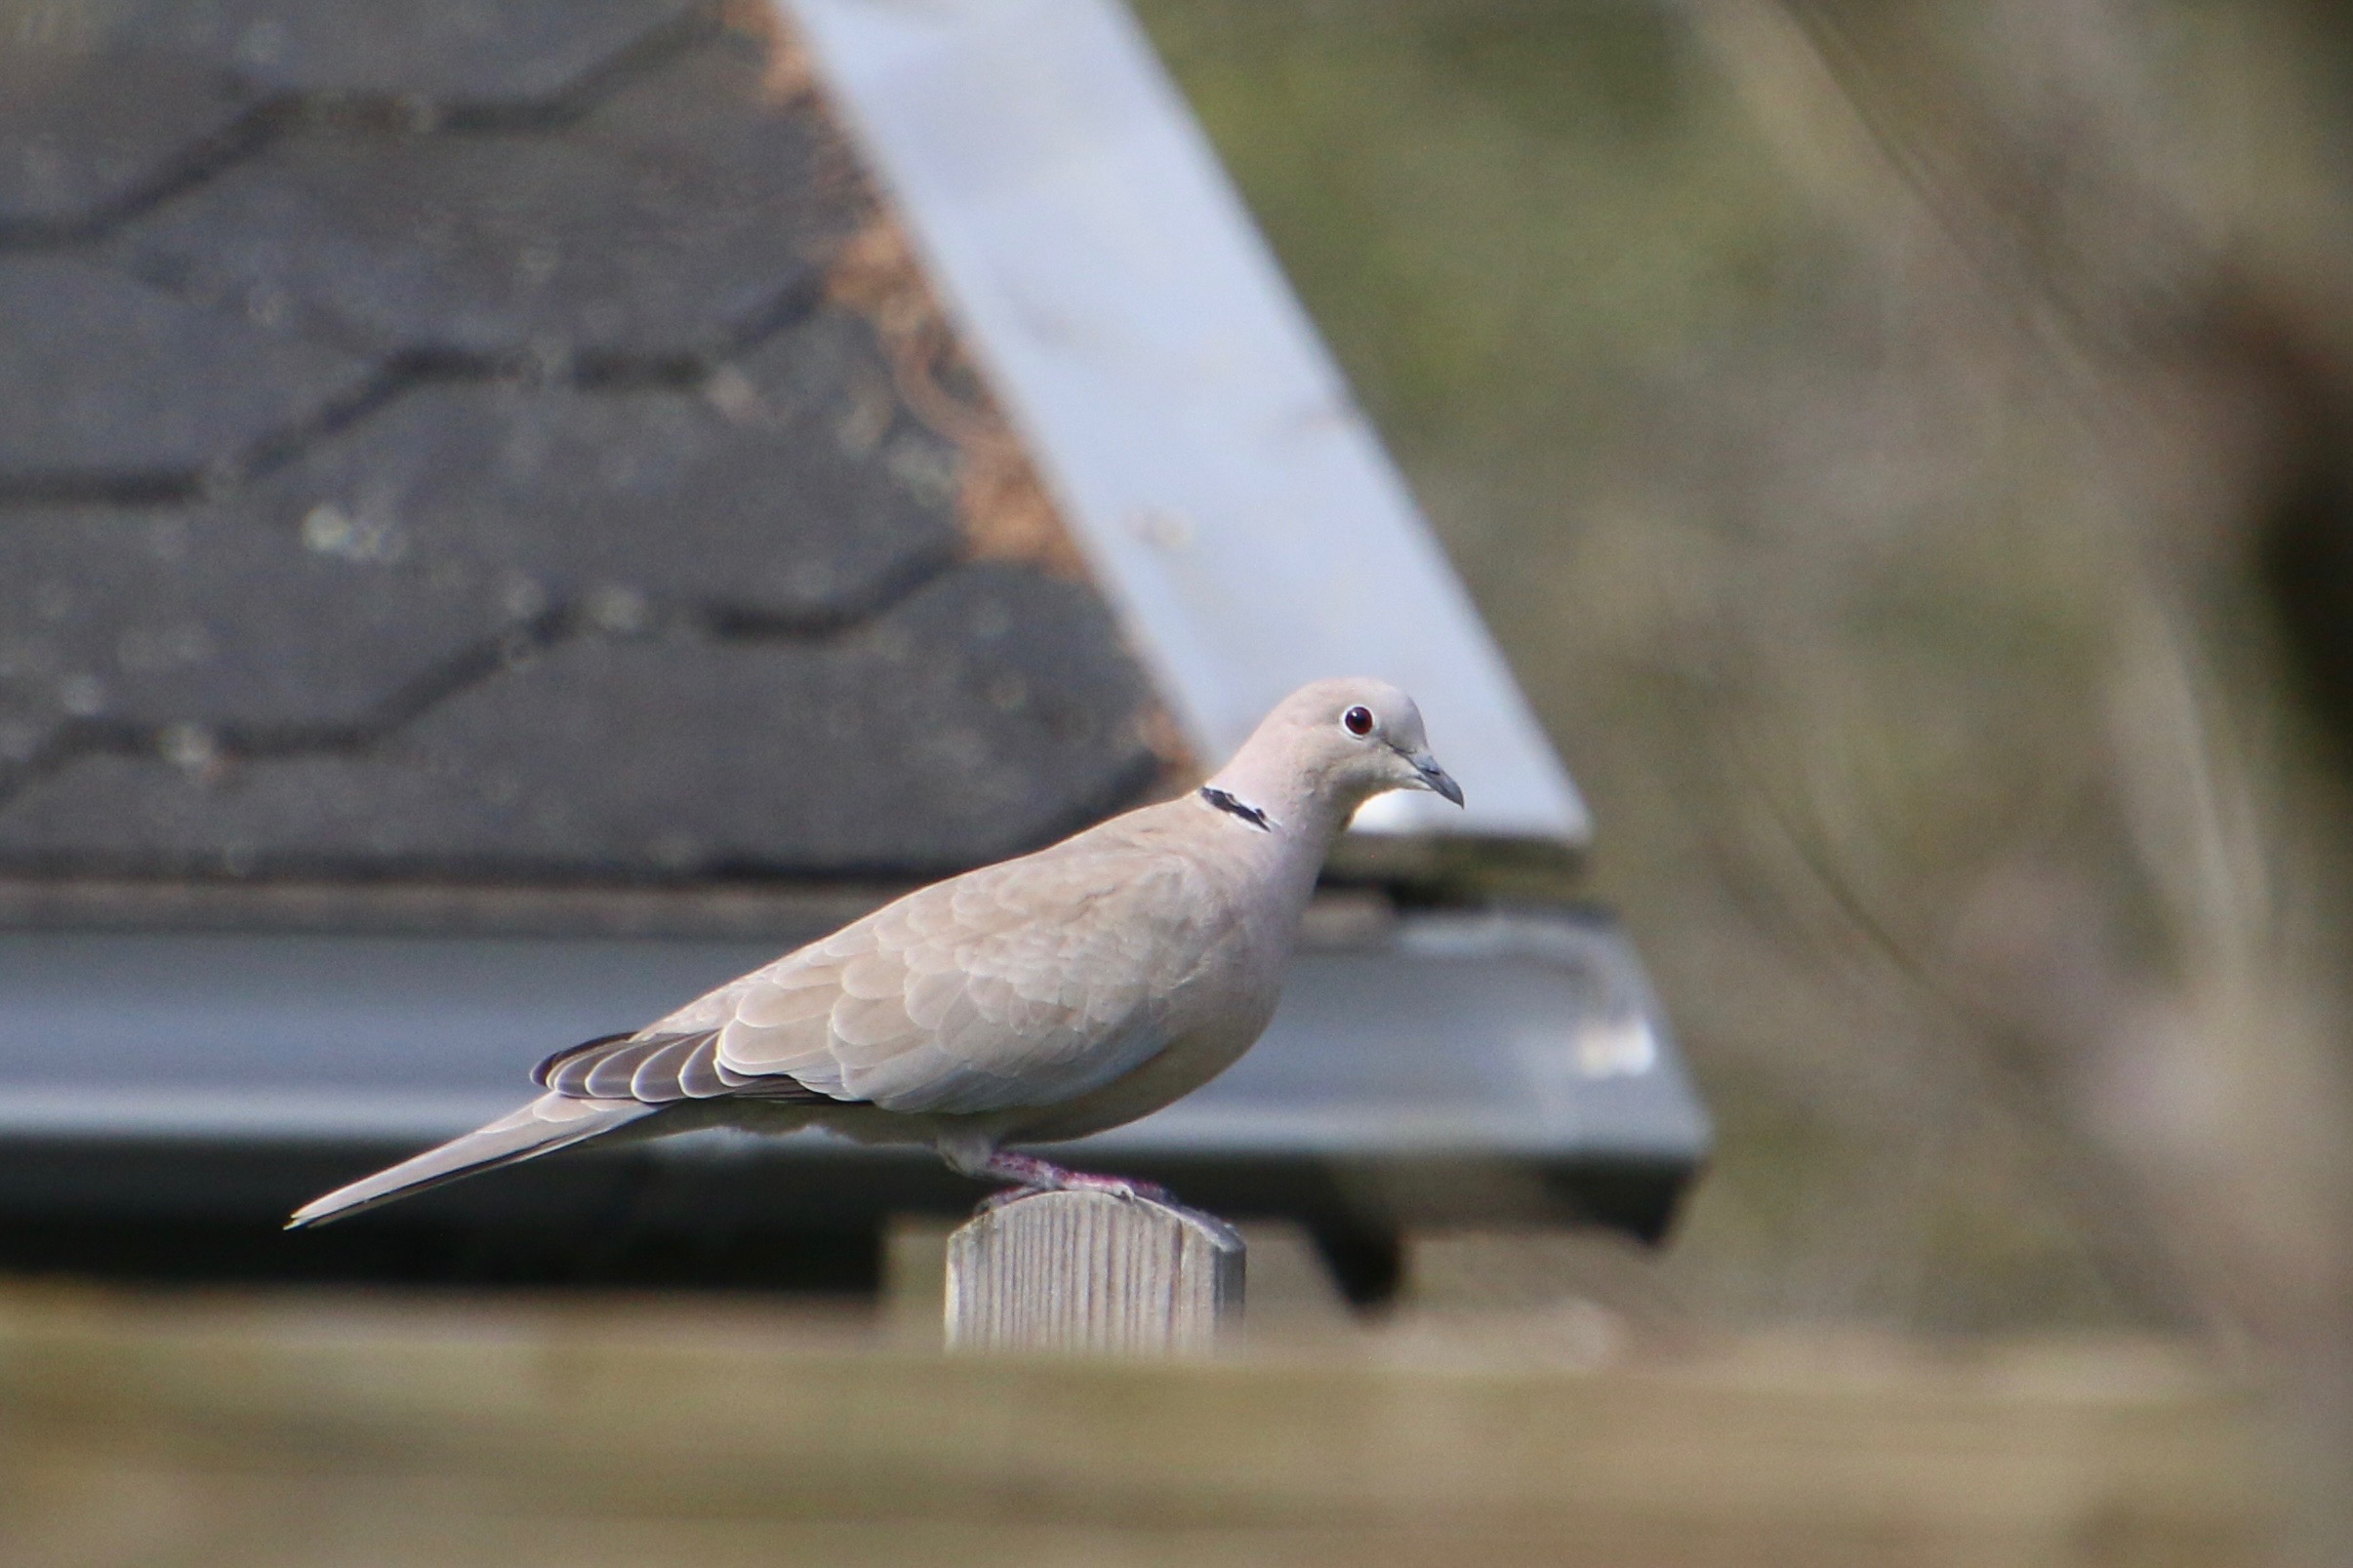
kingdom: Animalia
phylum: Chordata
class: Aves
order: Columbiformes
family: Columbidae
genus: Streptopelia
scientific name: Streptopelia decaocto
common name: Tyrkerdue
